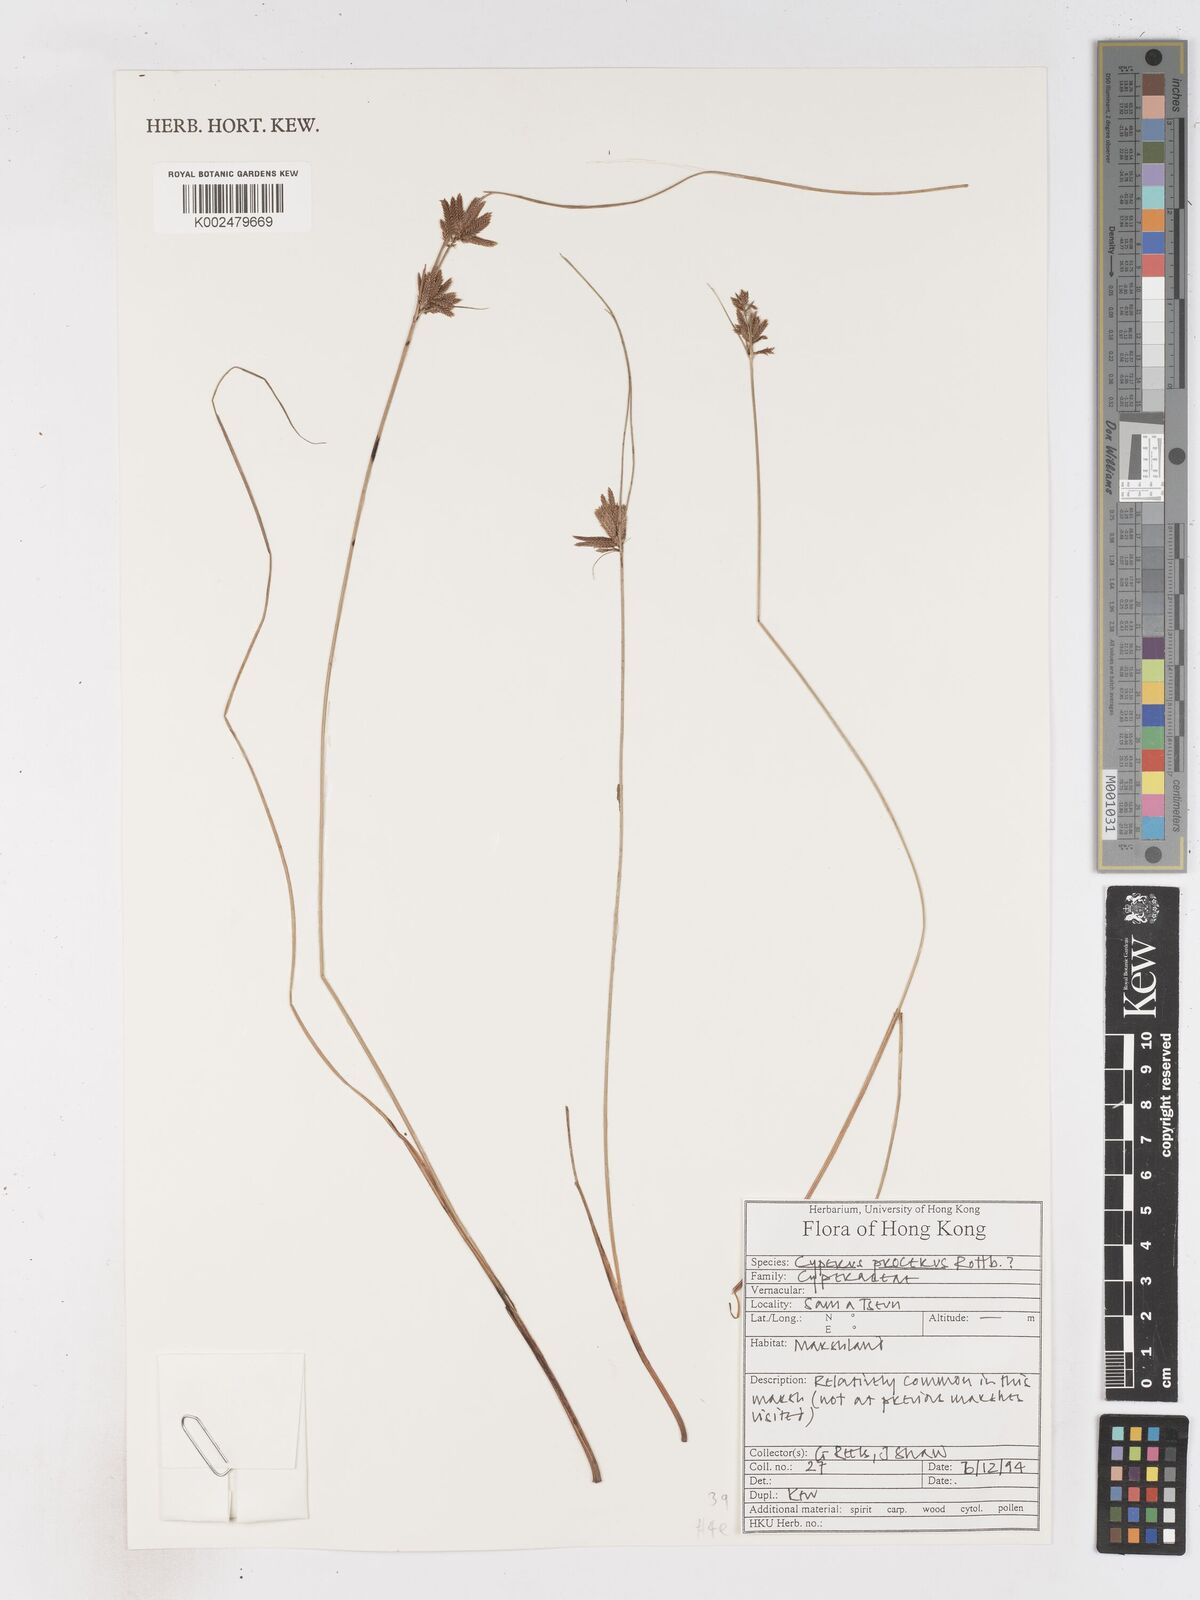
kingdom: Plantae
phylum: Tracheophyta
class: Liliopsida
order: Poales
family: Cyperaceae
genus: Cyperus
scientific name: Cyperus procerus
